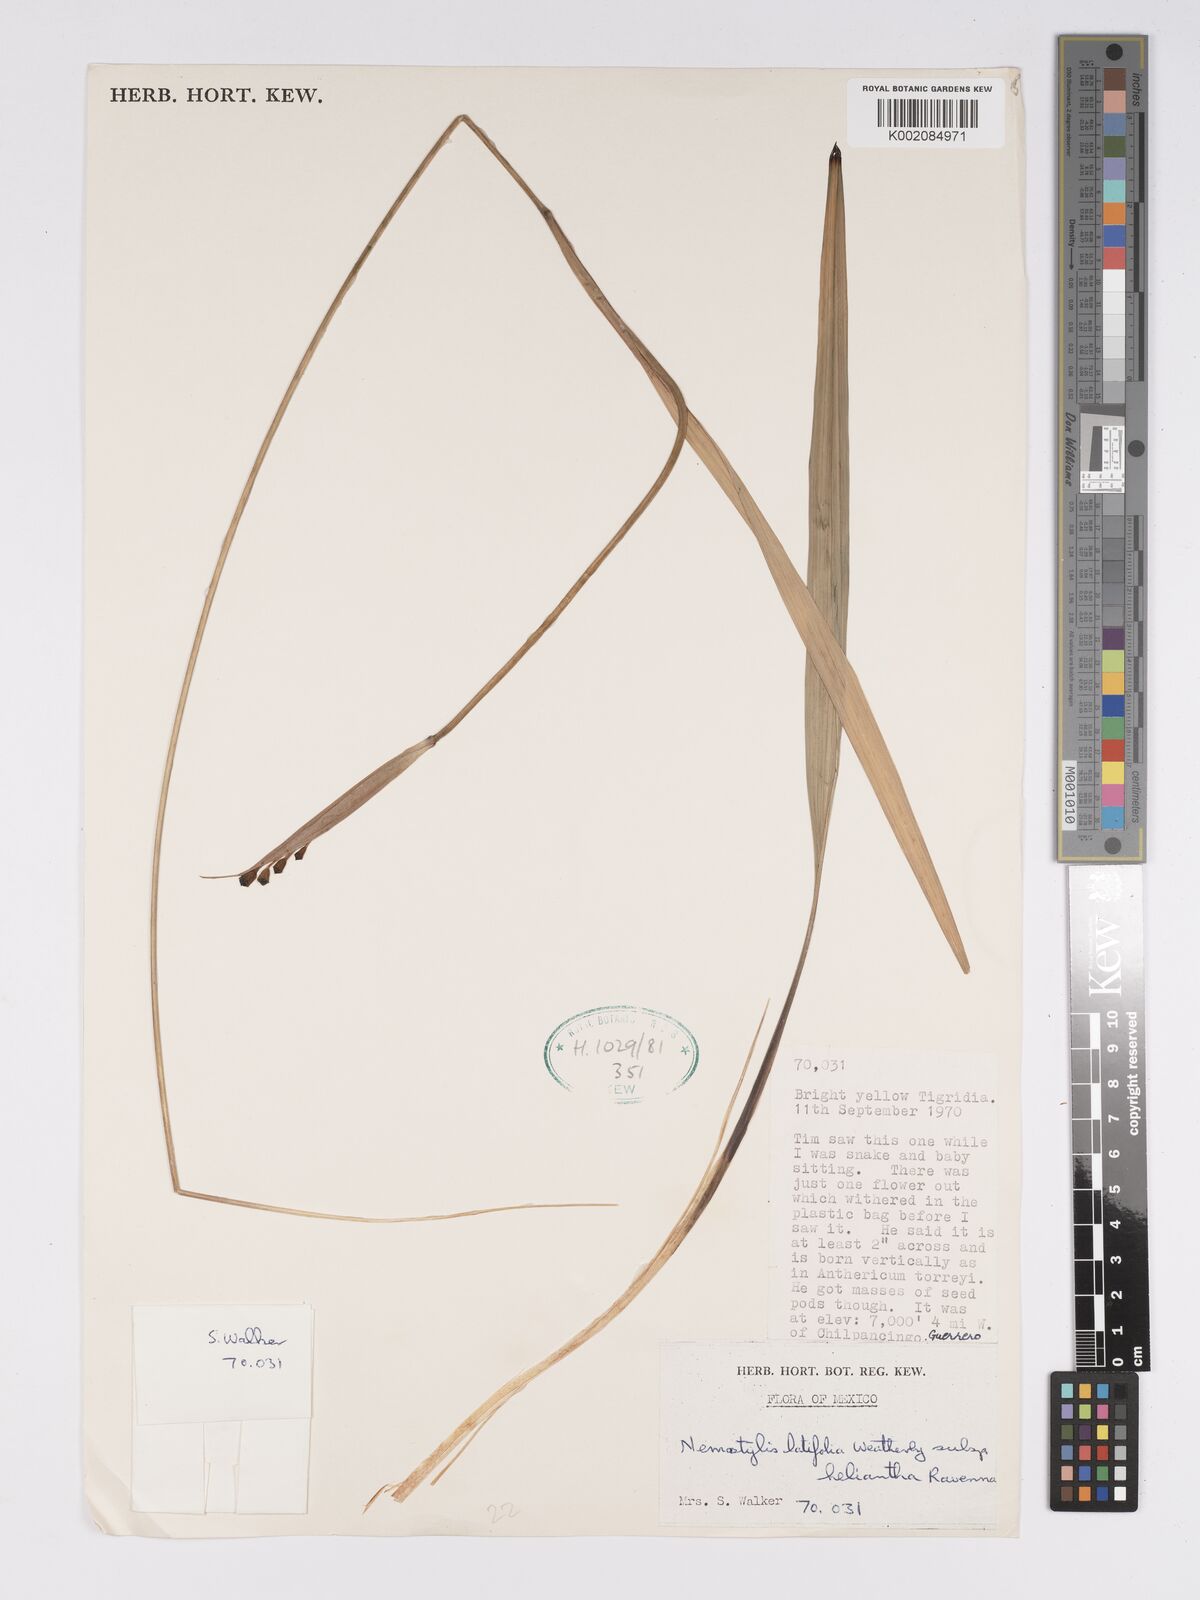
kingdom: Plantae
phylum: Tracheophyta
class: Liliopsida
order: Asparagales
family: Iridaceae
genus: Tigridia
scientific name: Tigridia latifolia
